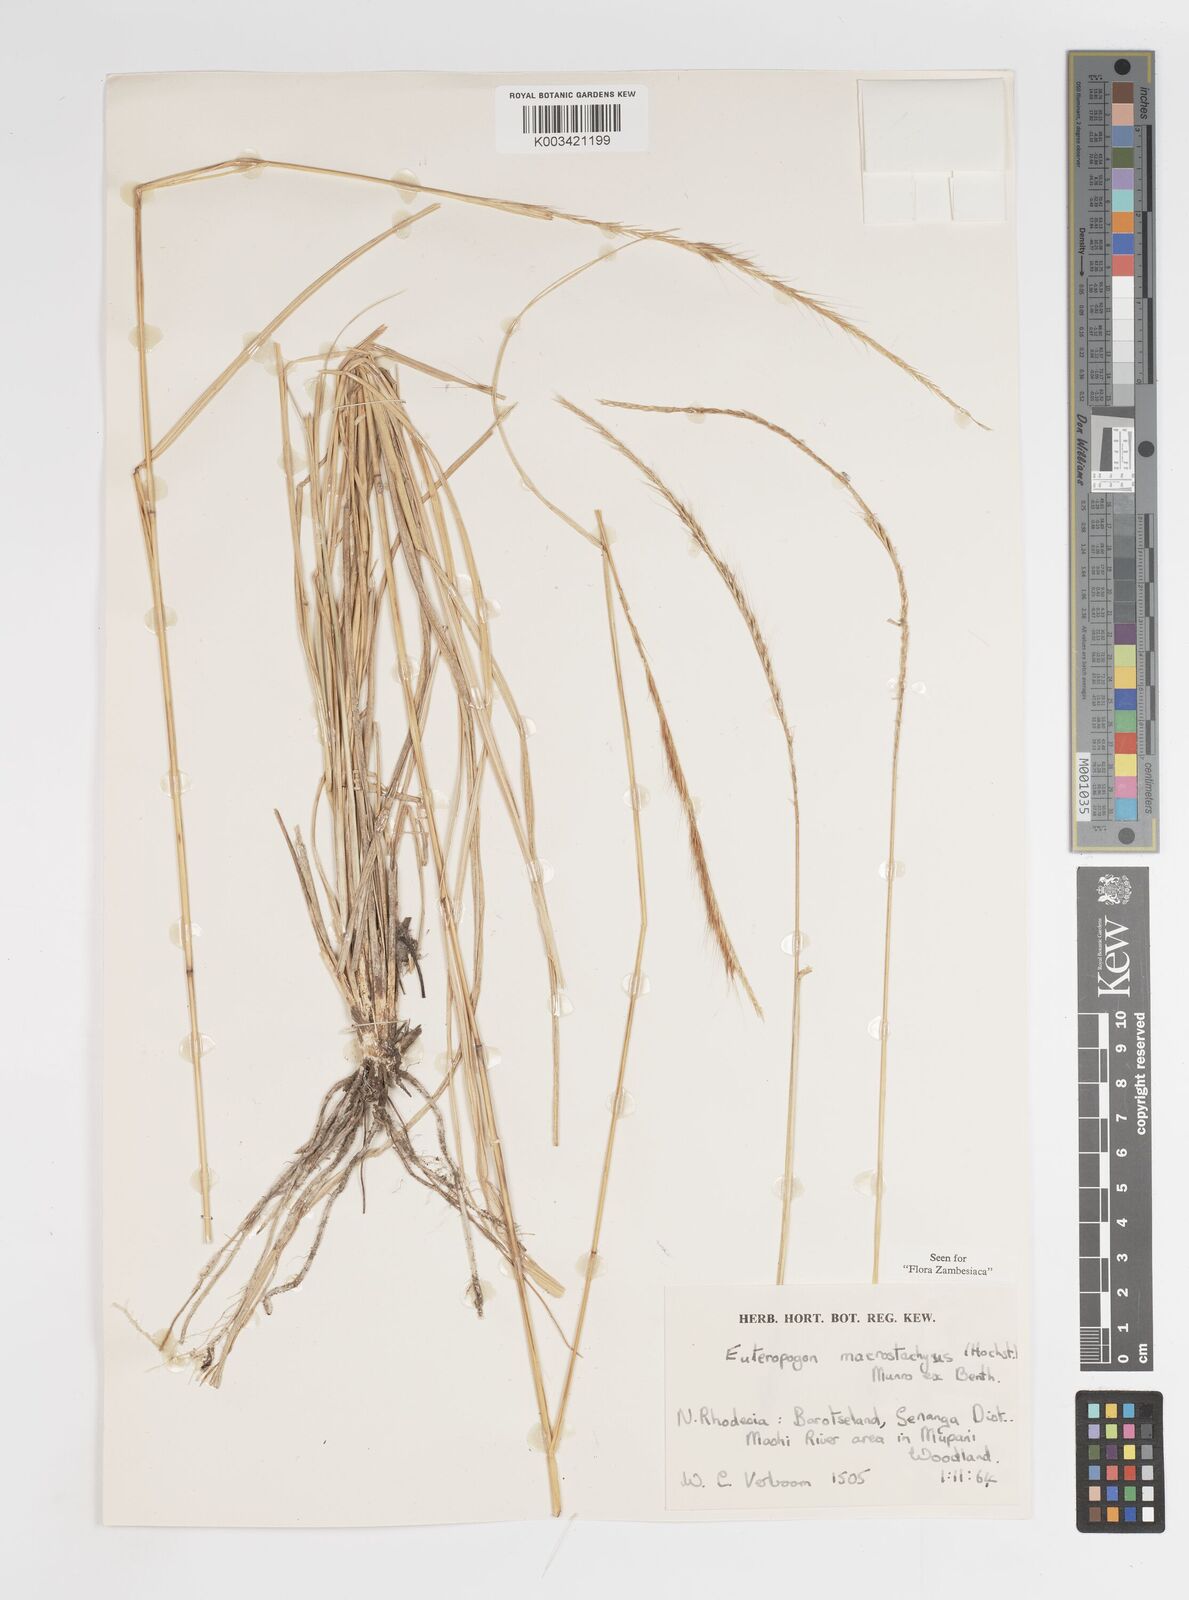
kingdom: Plantae
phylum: Tracheophyta
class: Liliopsida
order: Poales
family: Poaceae
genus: Enteropogon
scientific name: Enteropogon macrostachyus
